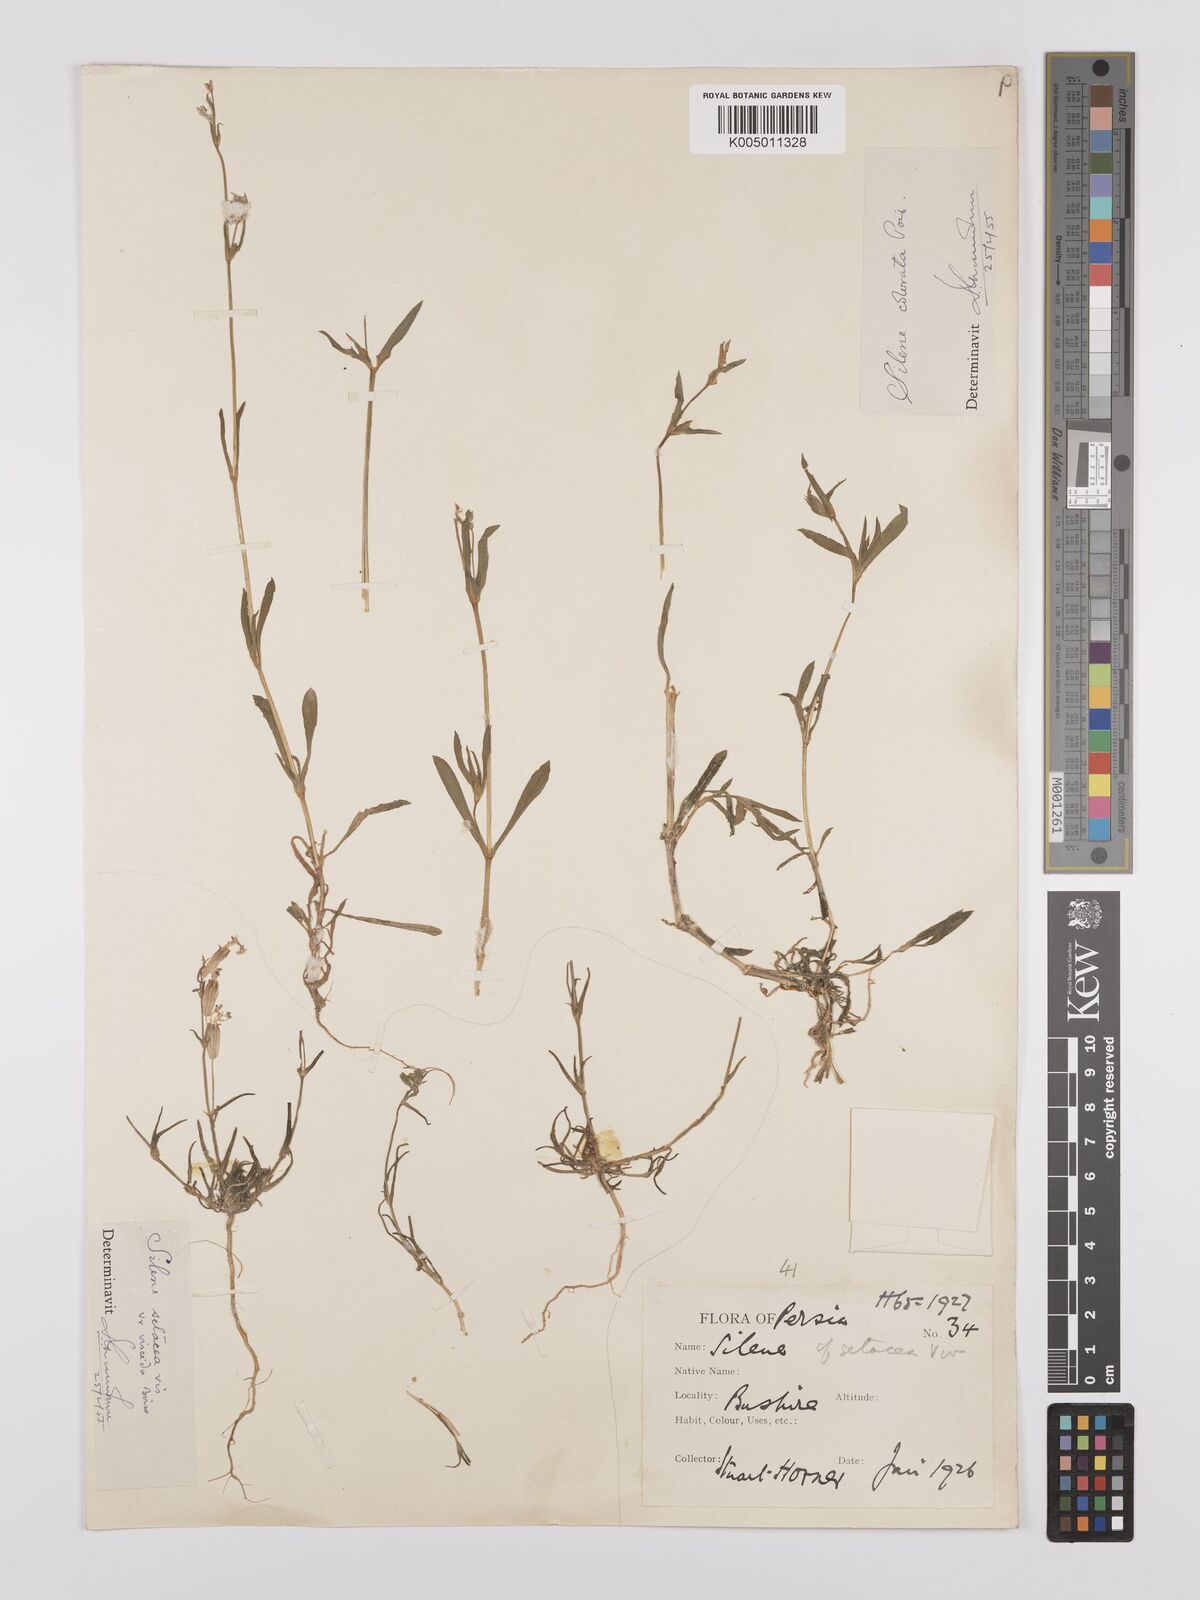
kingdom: Plantae
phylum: Tracheophyta
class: Magnoliopsida
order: Caryophyllales
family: Caryophyllaceae
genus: Silene
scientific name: Silene arabica
